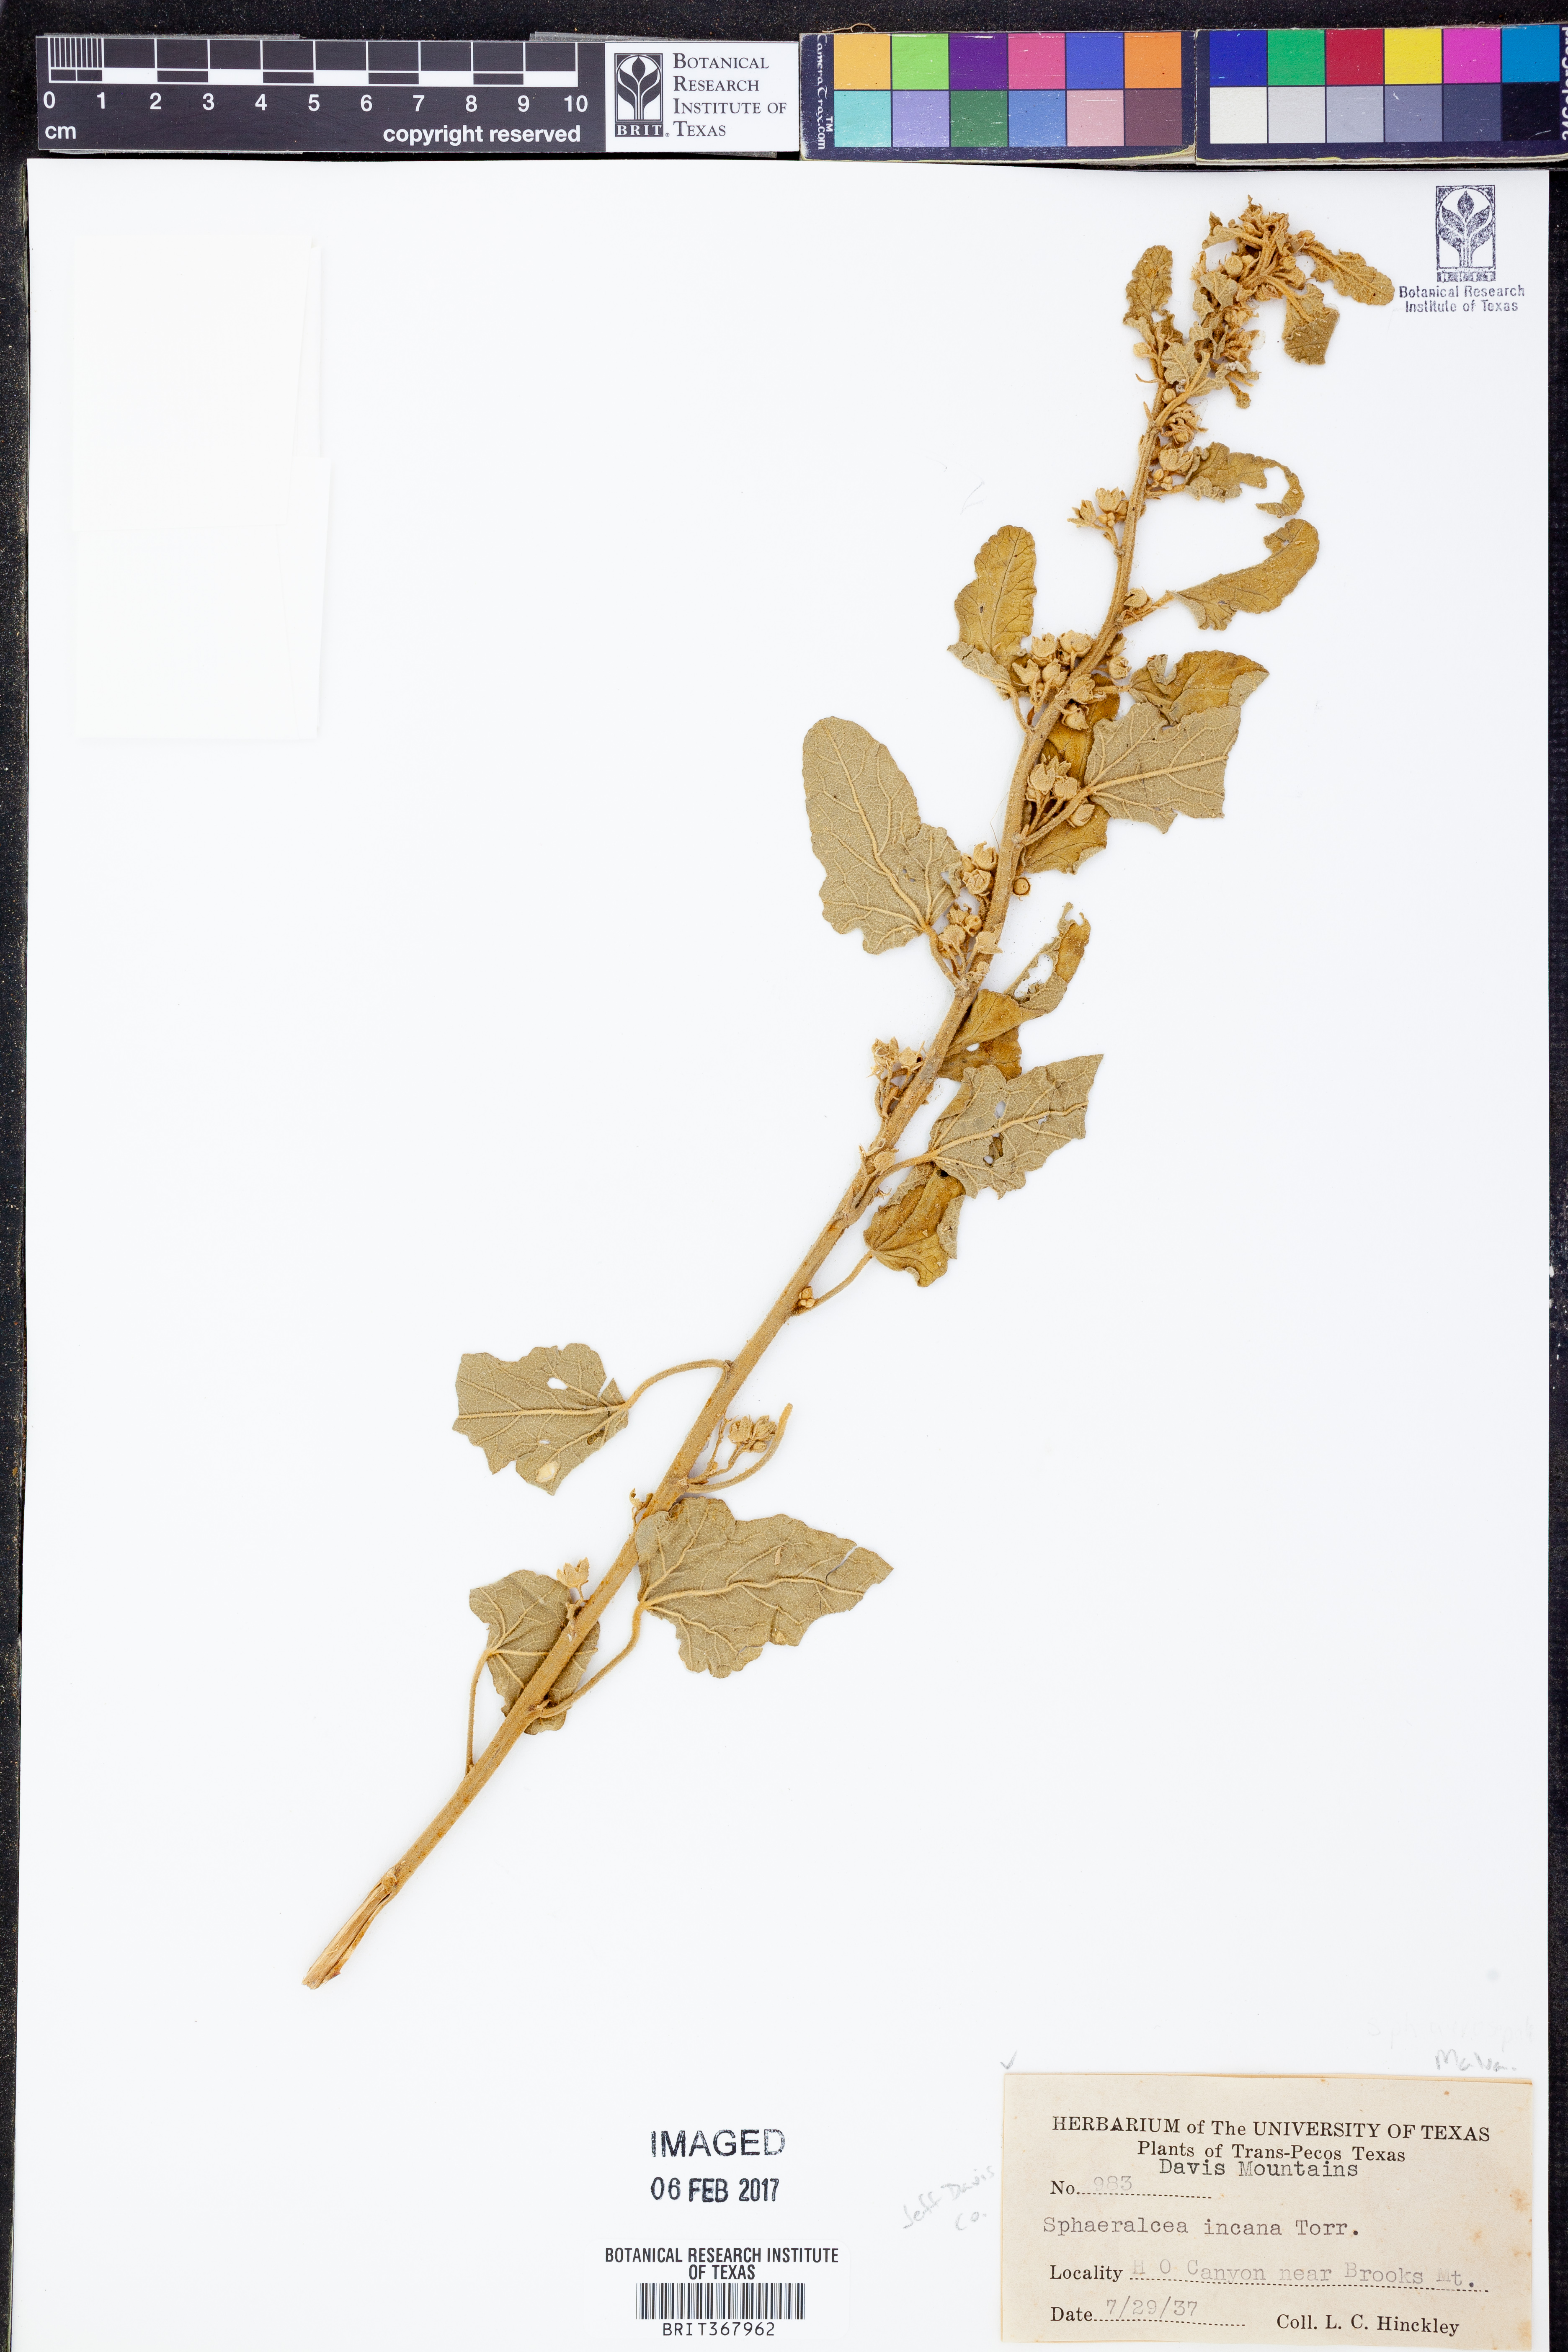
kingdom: Plantae
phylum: Tracheophyta
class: Magnoliopsida
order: Malvales
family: Malvaceae
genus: Sphaeralcea
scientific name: Sphaeralcea incana
